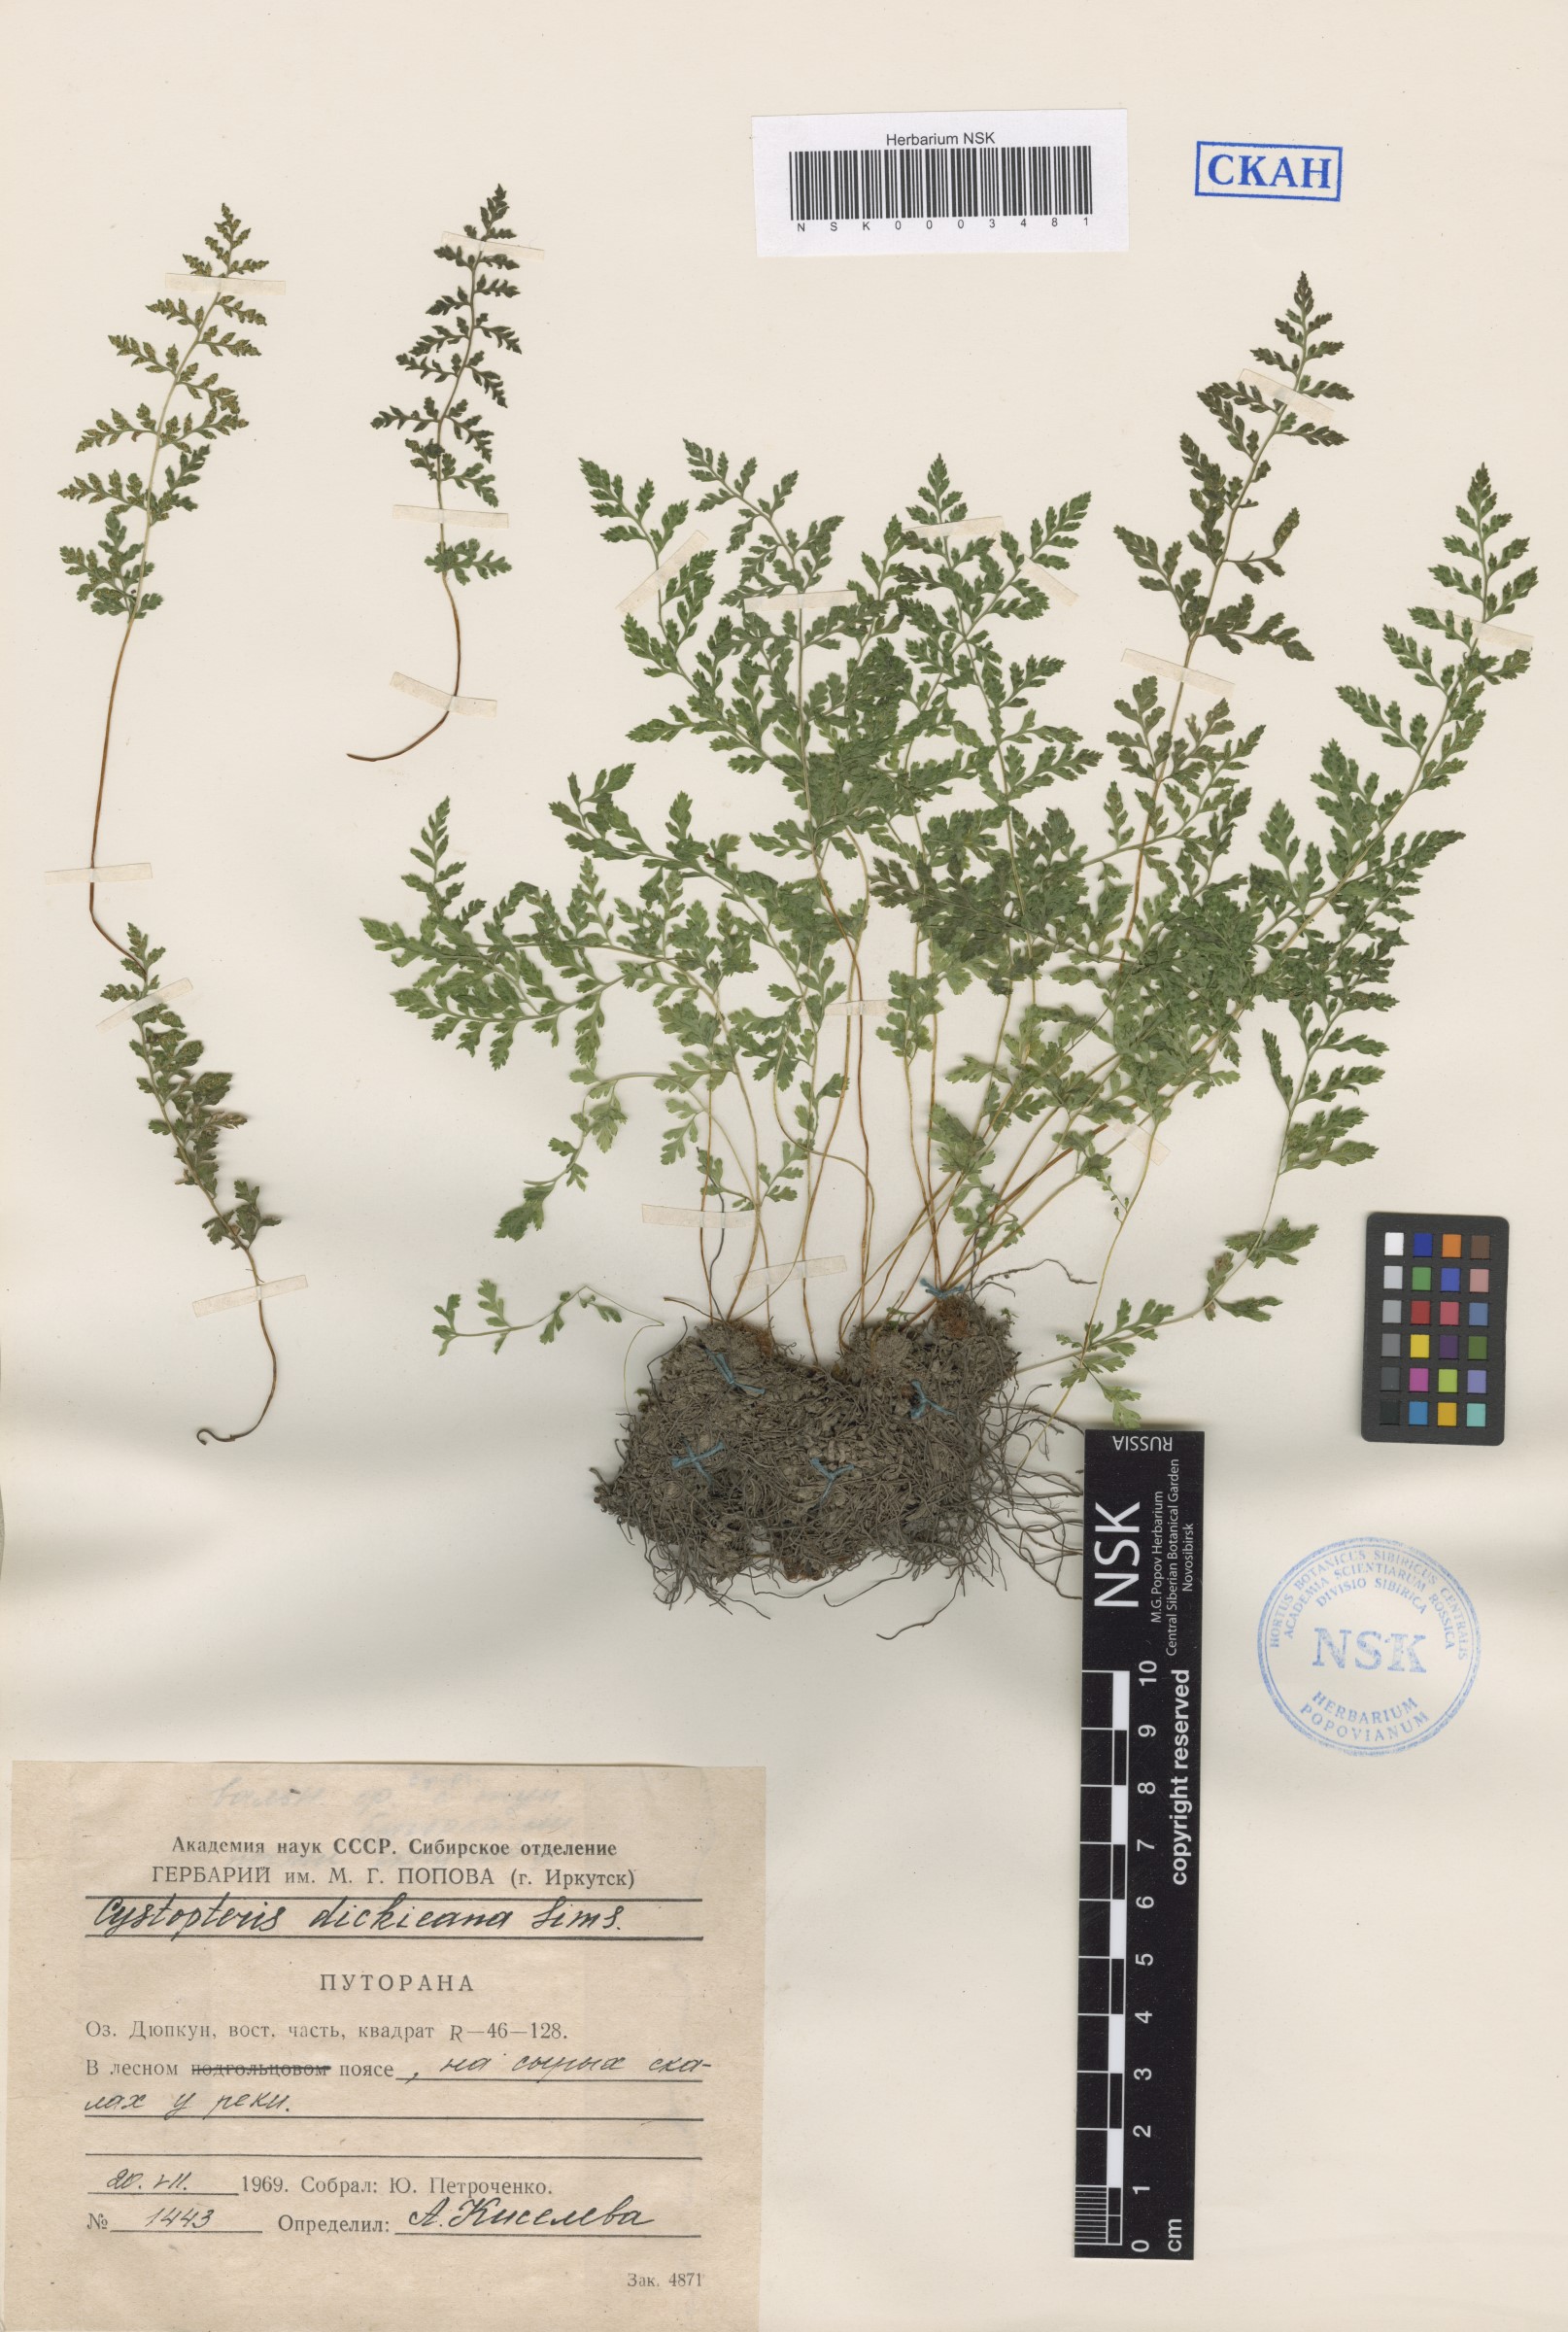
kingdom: Plantae
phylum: Tracheophyta
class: Polypodiopsida
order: Polypodiales
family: Cystopteridaceae
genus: Cystopteris
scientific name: Cystopteris dickieana
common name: Dickie's bladder-fern
